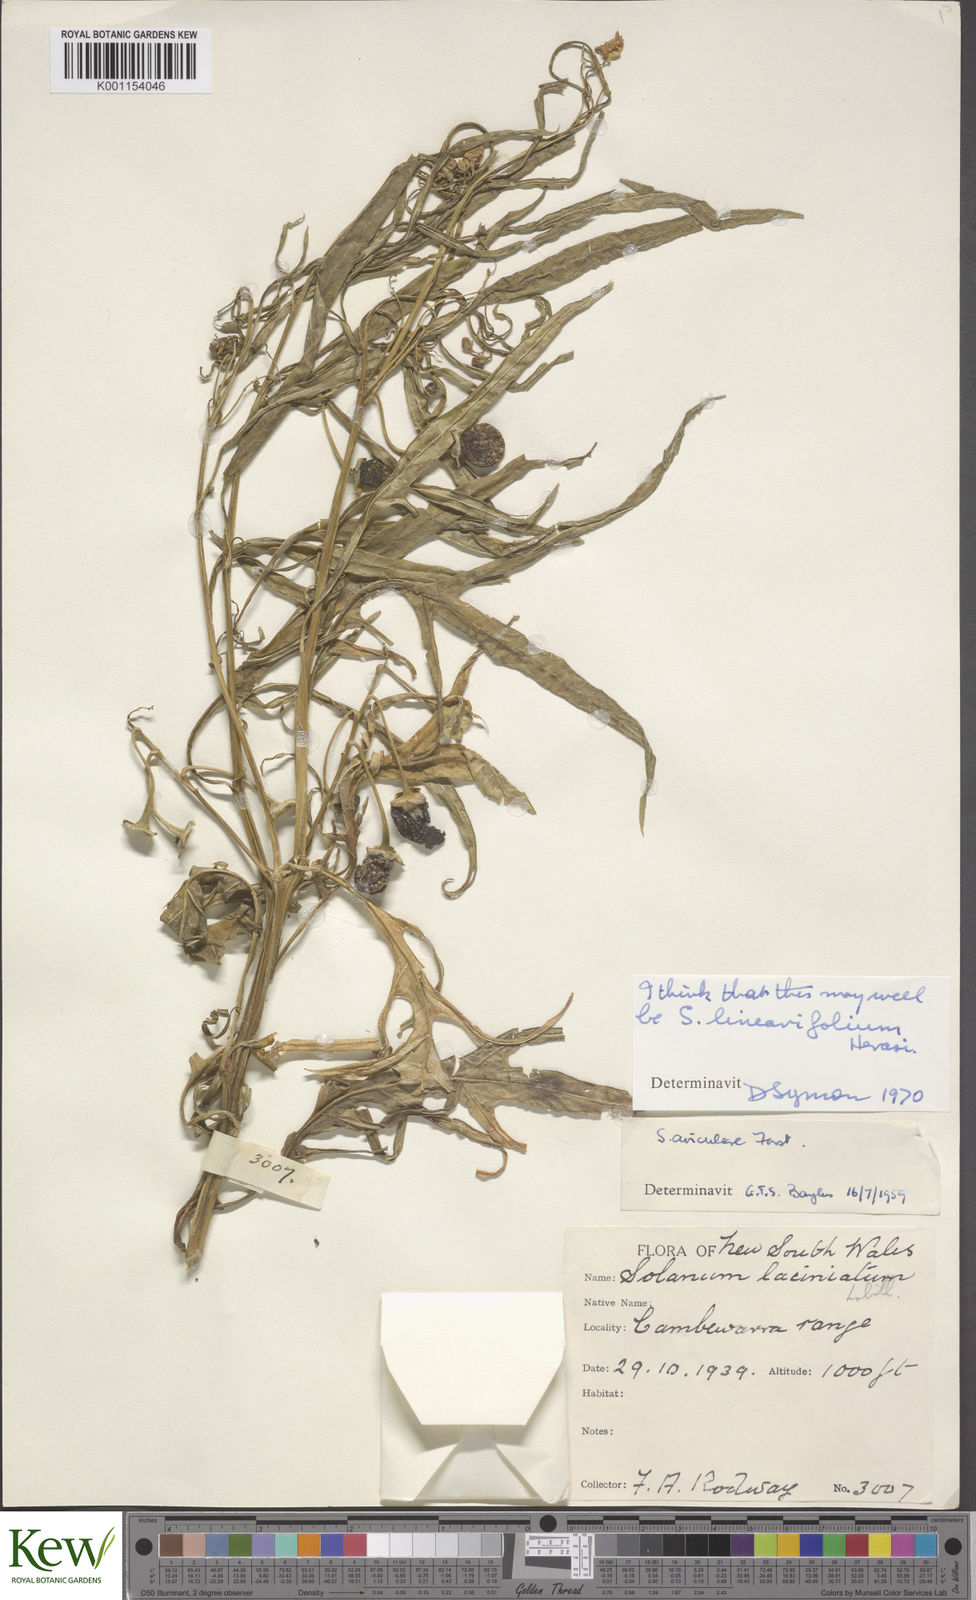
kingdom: Plantae
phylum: Tracheophyta
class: Magnoliopsida
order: Solanales
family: Solanaceae
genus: Solanum
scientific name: Solanum linearifolium
